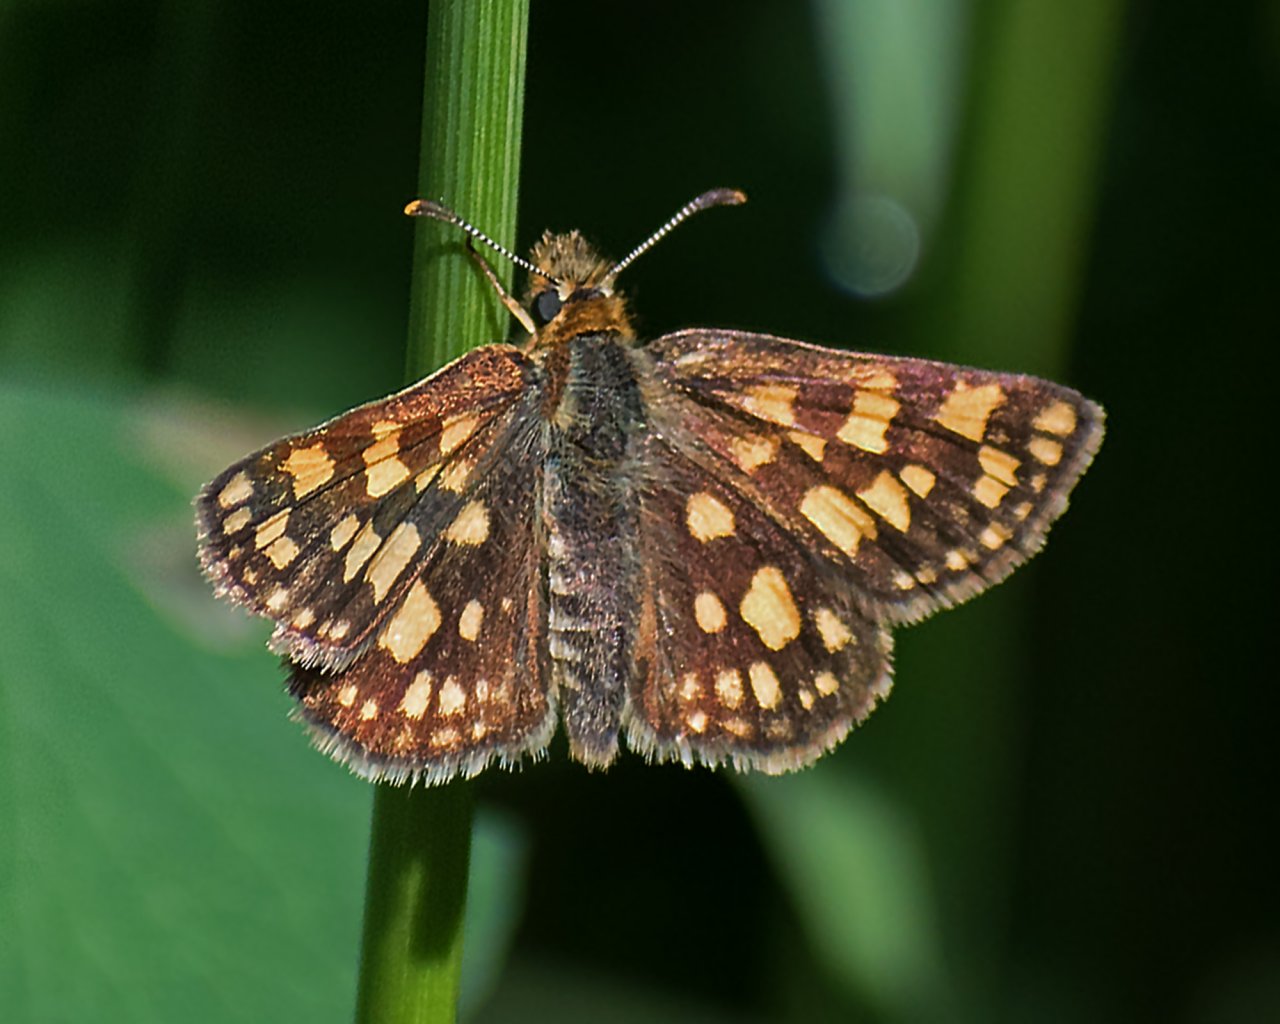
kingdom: Animalia
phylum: Arthropoda
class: Insecta
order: Lepidoptera
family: Hesperiidae
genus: Carterocephalus
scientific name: Carterocephalus palaemon
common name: Chequered Skipper
